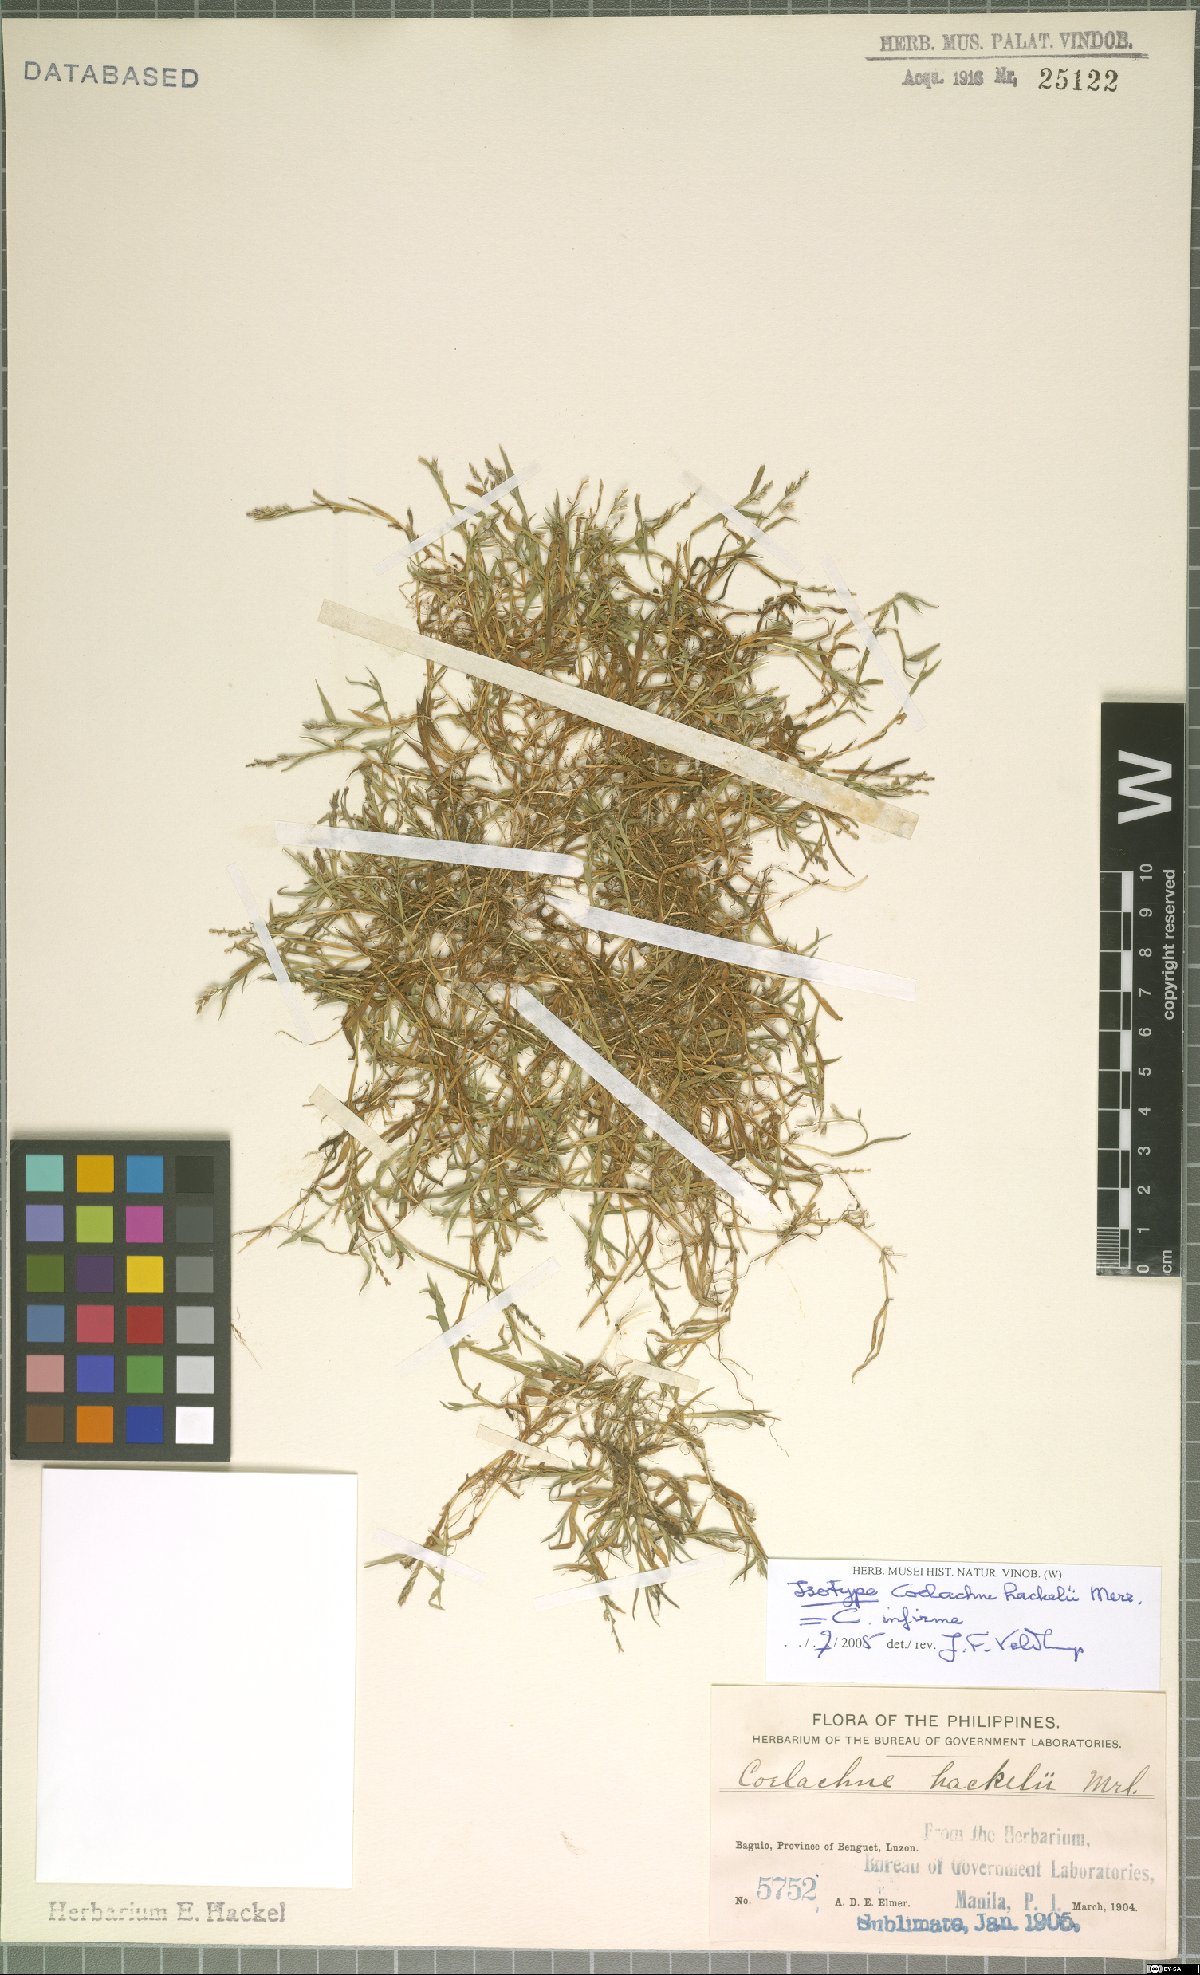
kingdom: Plantae
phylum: Tracheophyta
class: Liliopsida
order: Poales
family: Poaceae
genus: Coelachne
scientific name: Coelachne infirma
